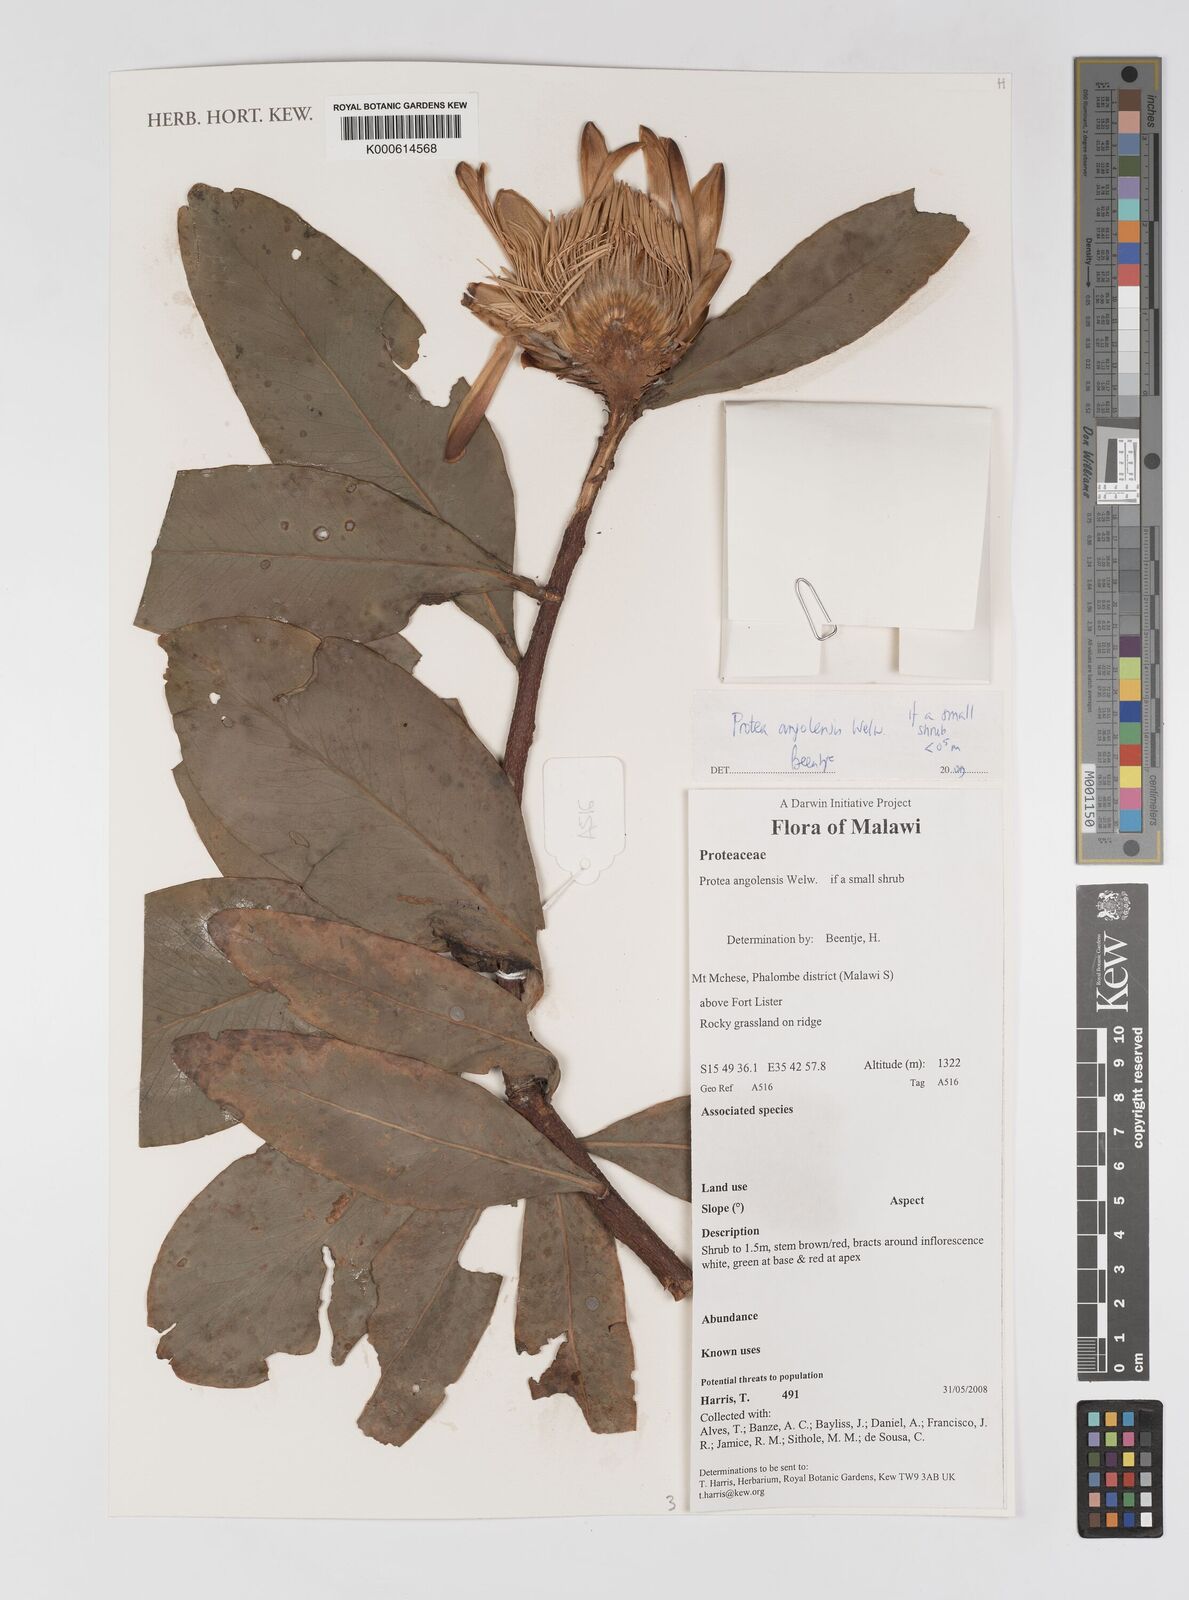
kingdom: Plantae
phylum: Tracheophyta
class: Magnoliopsida
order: Proteales
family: Proteaceae
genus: Protea
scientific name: Protea angolensis
